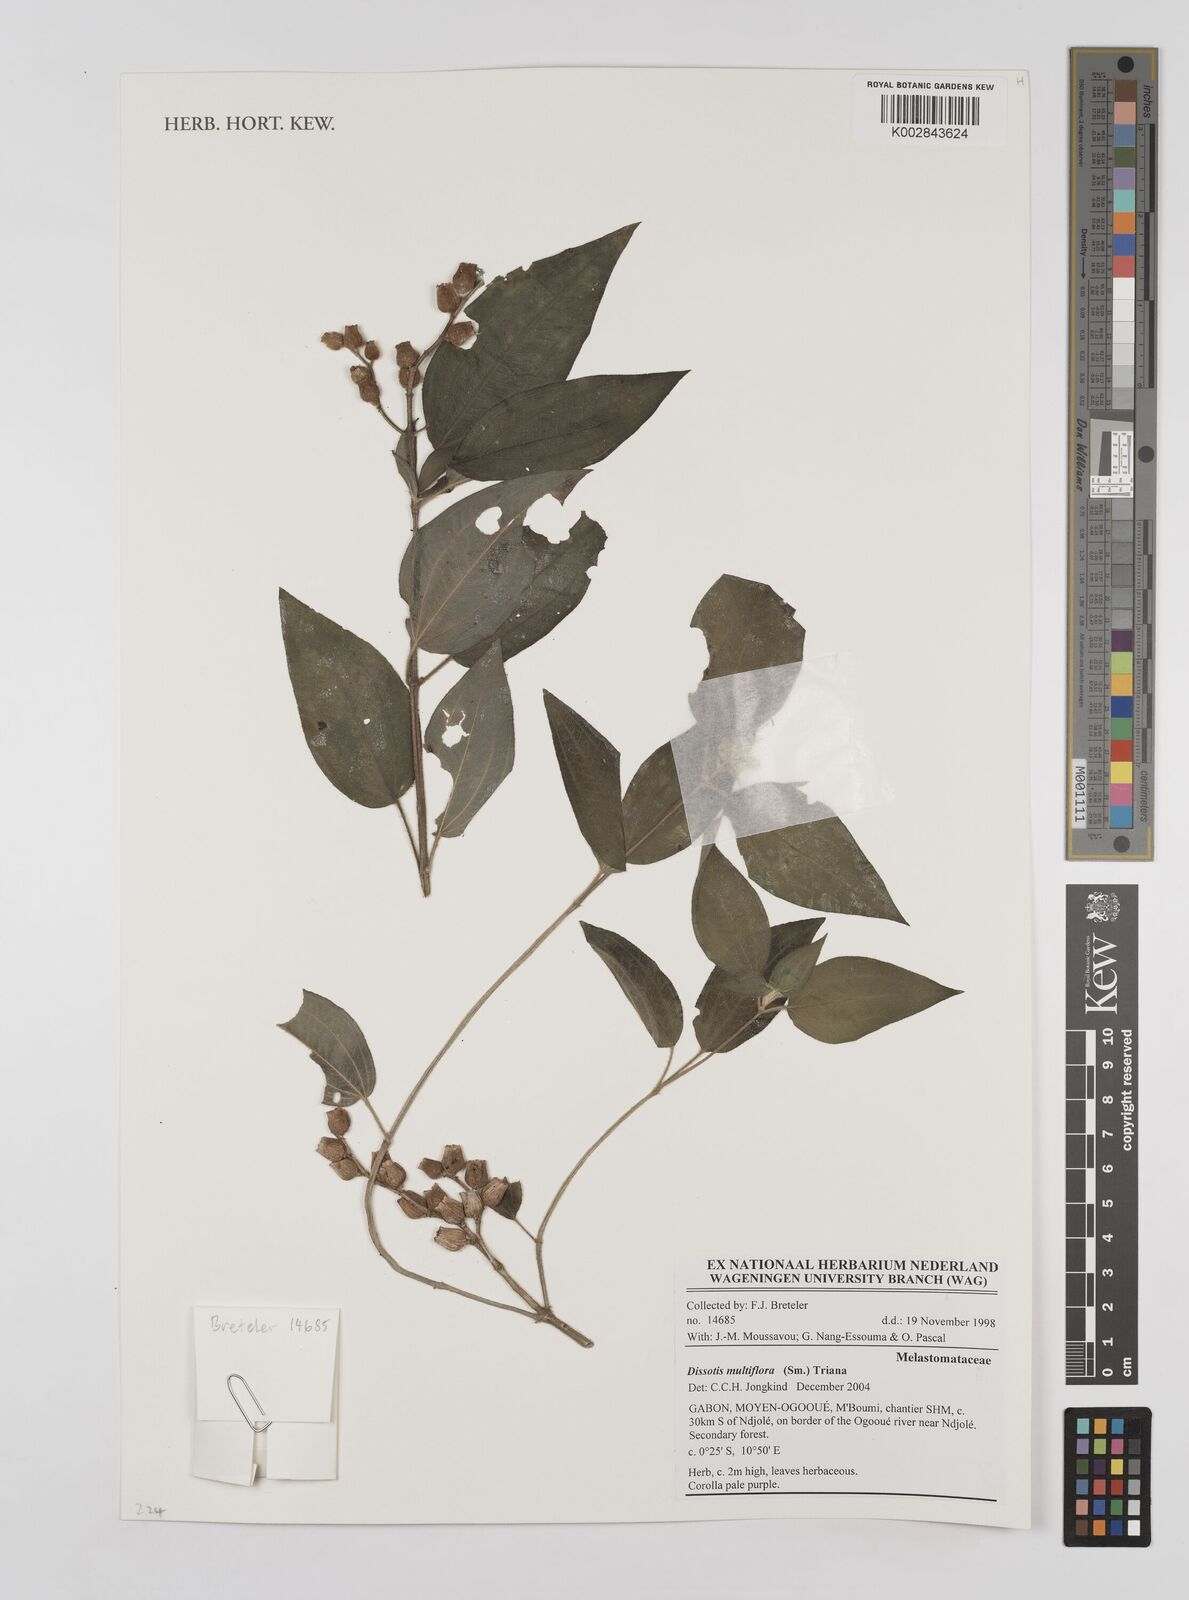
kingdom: Plantae
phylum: Tracheophyta
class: Magnoliopsida
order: Myrtales
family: Melastomataceae
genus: Dupineta
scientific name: Dupineta multiflora
